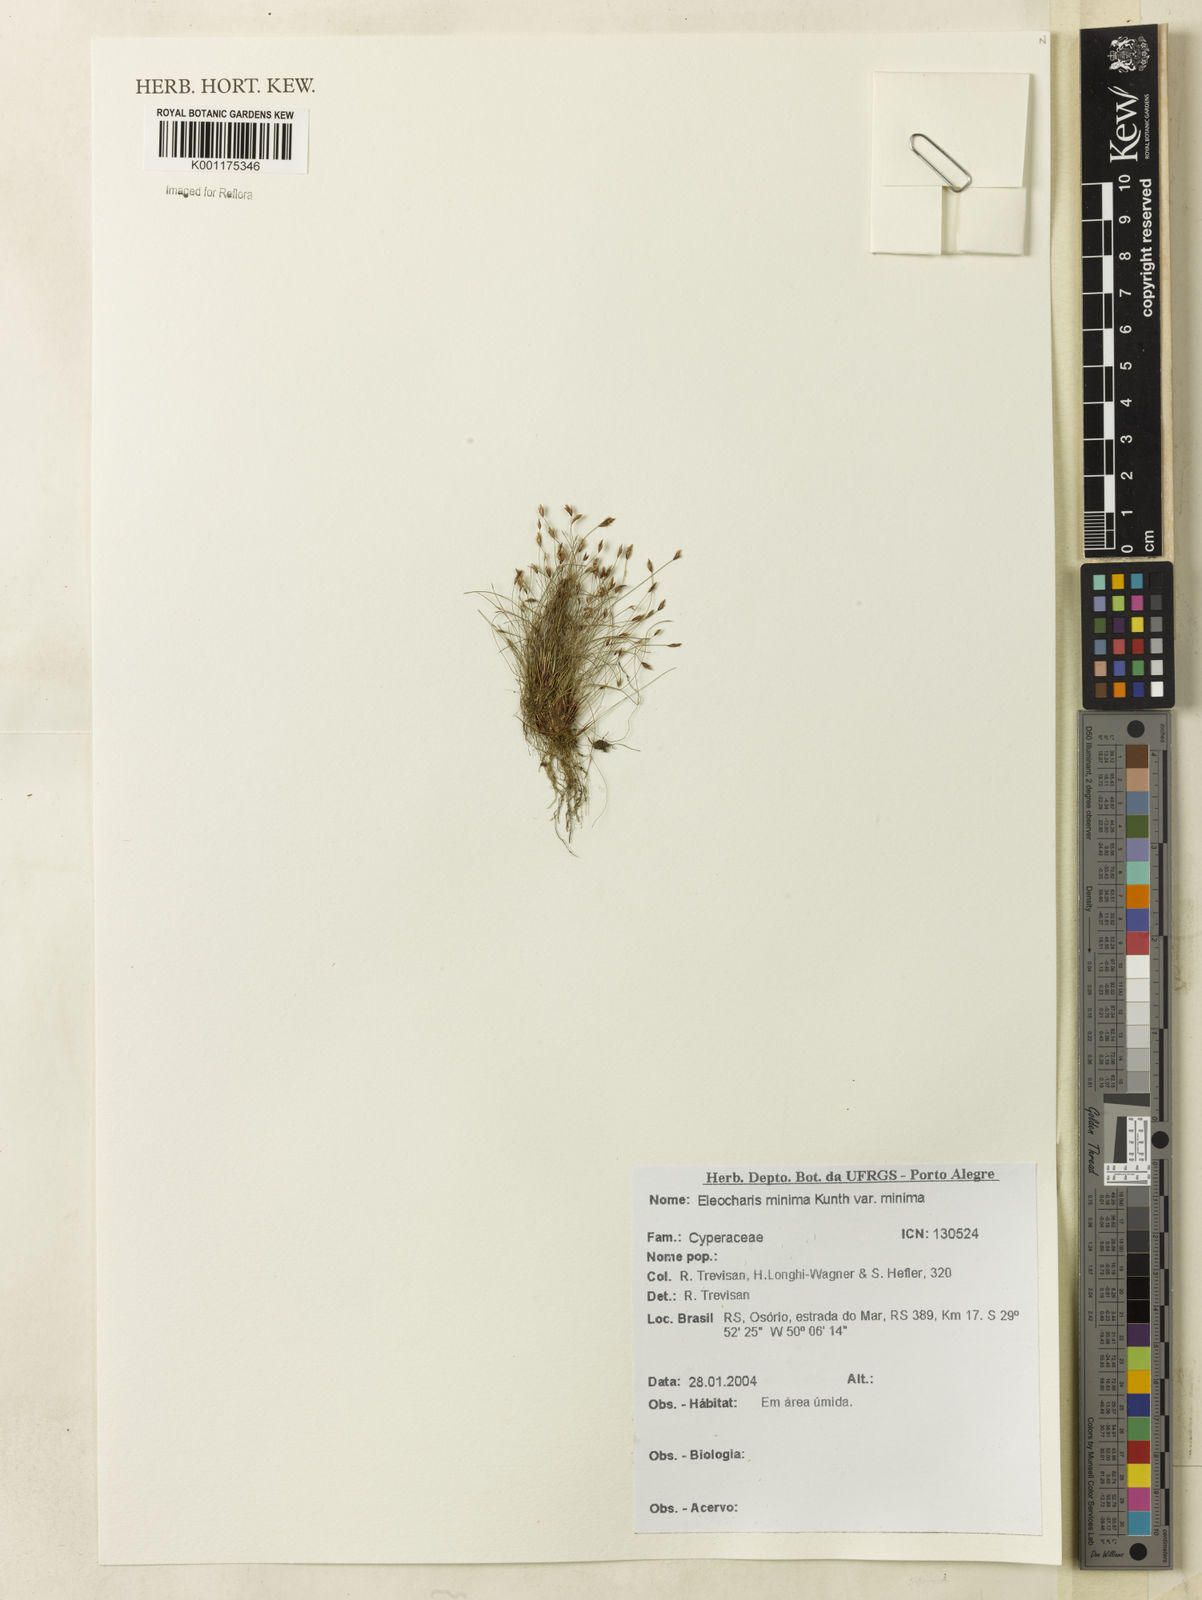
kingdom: Plantae
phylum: Tracheophyta
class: Liliopsida
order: Poales
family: Cyperaceae
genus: Eleocharis
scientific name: Eleocharis minima
